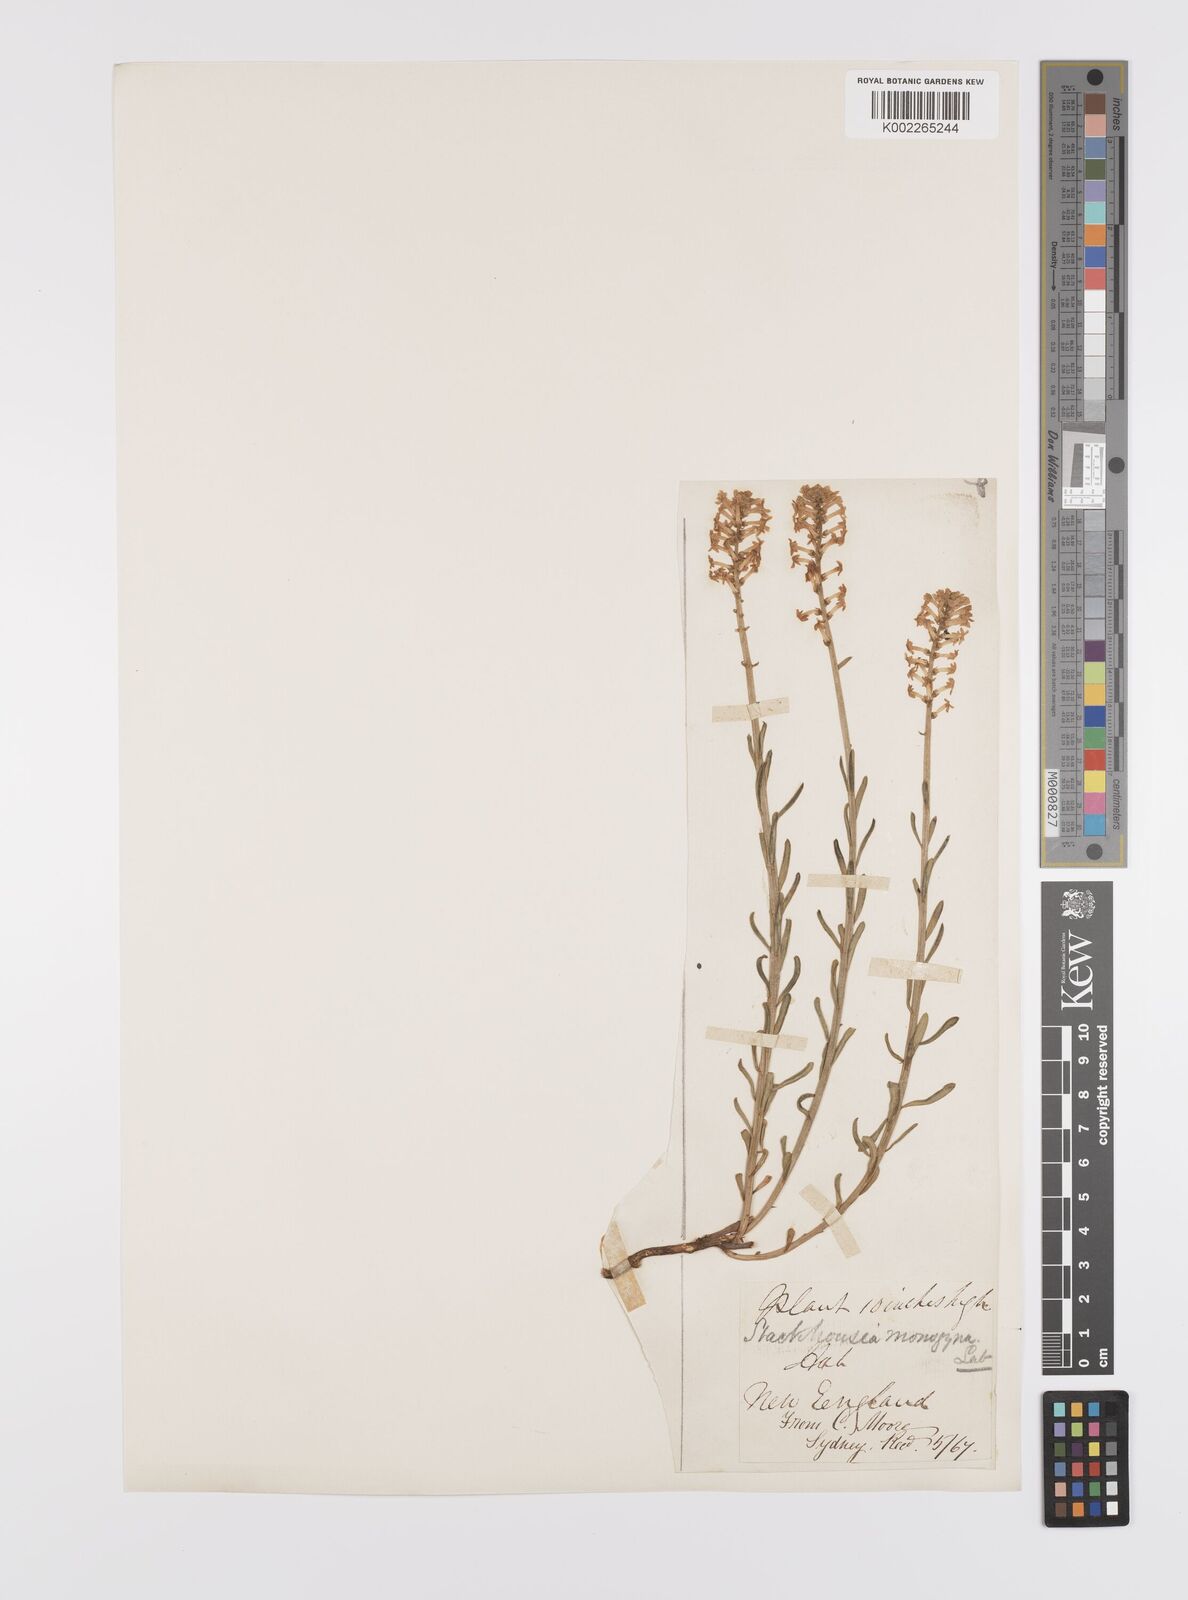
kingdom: Plantae
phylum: Tracheophyta
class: Magnoliopsida
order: Celastrales
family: Celastraceae
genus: Stackhousia
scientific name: Stackhousia monogyna
